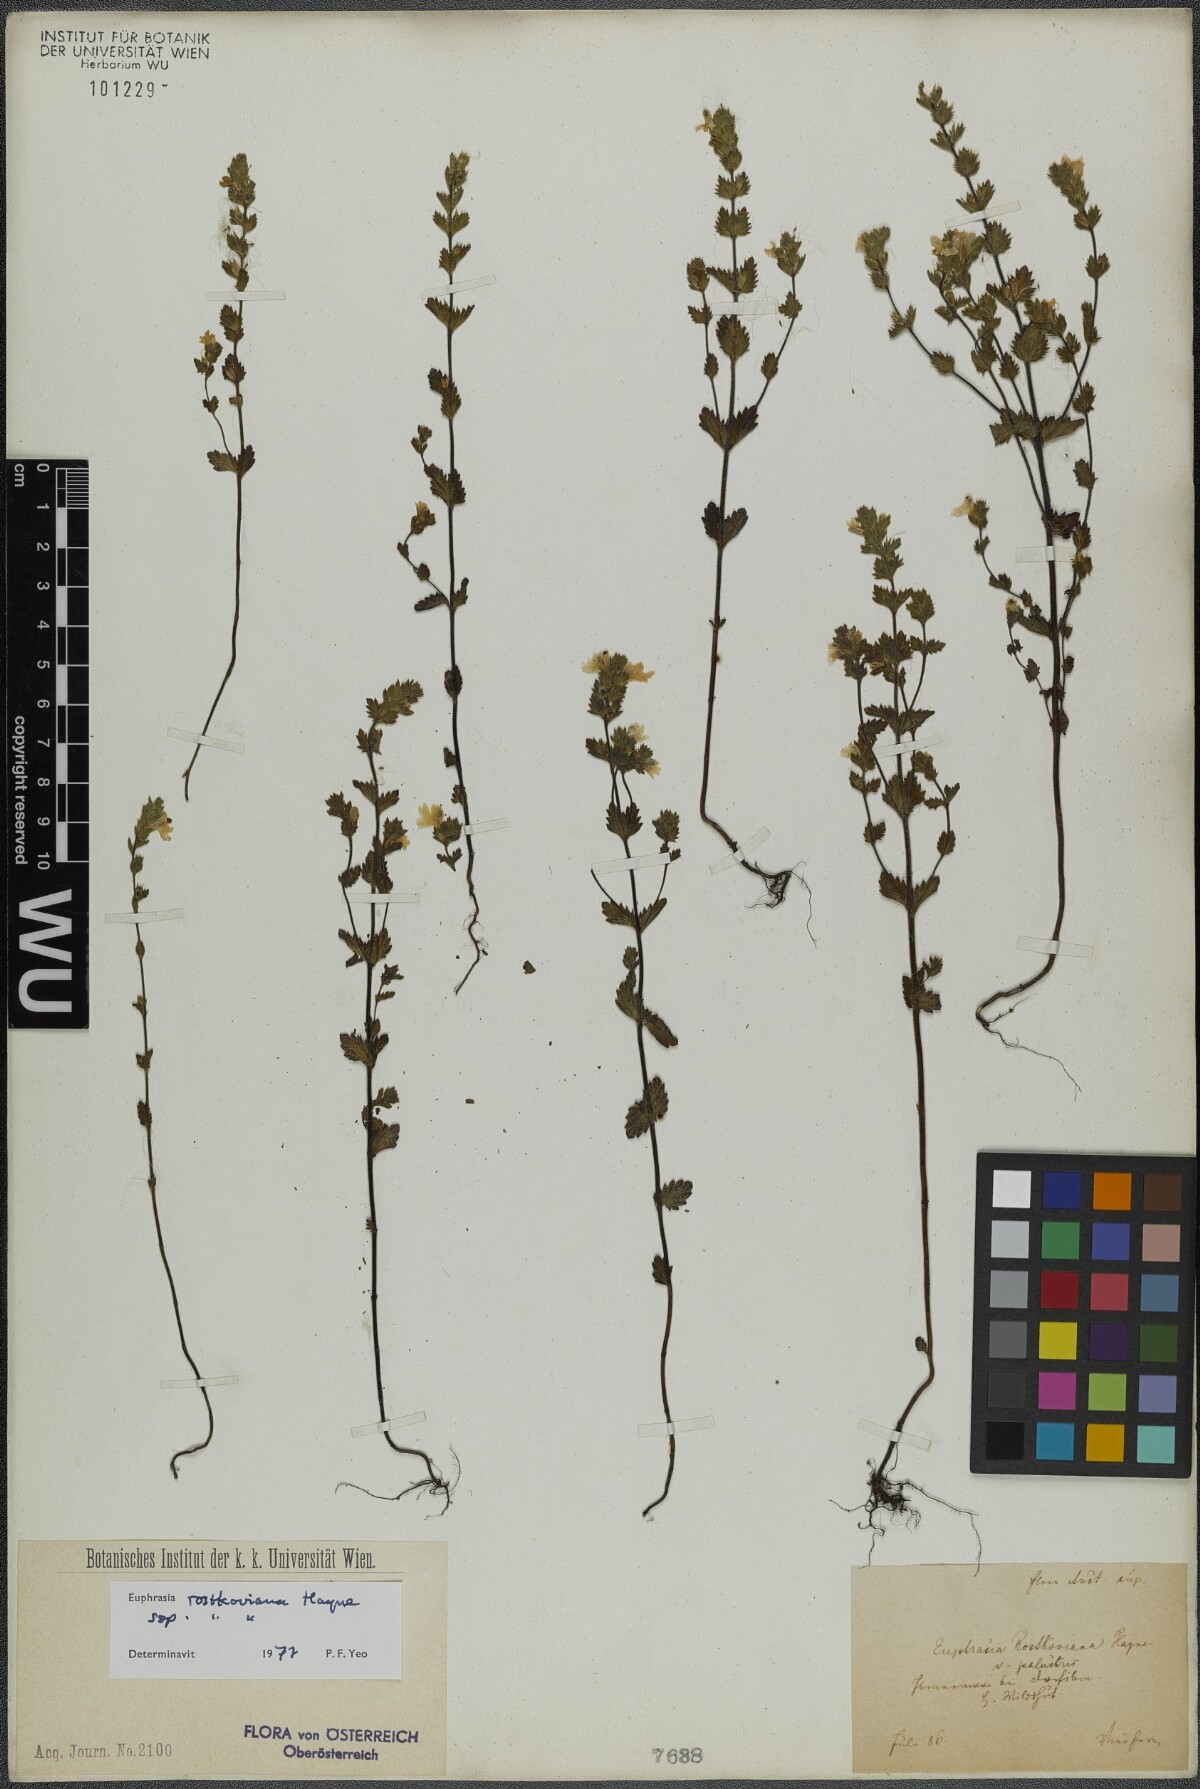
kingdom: Plantae
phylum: Tracheophyta
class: Magnoliopsida
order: Lamiales
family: Orobanchaceae
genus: Euphrasia
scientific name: Euphrasia officinalis
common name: Eyebright
